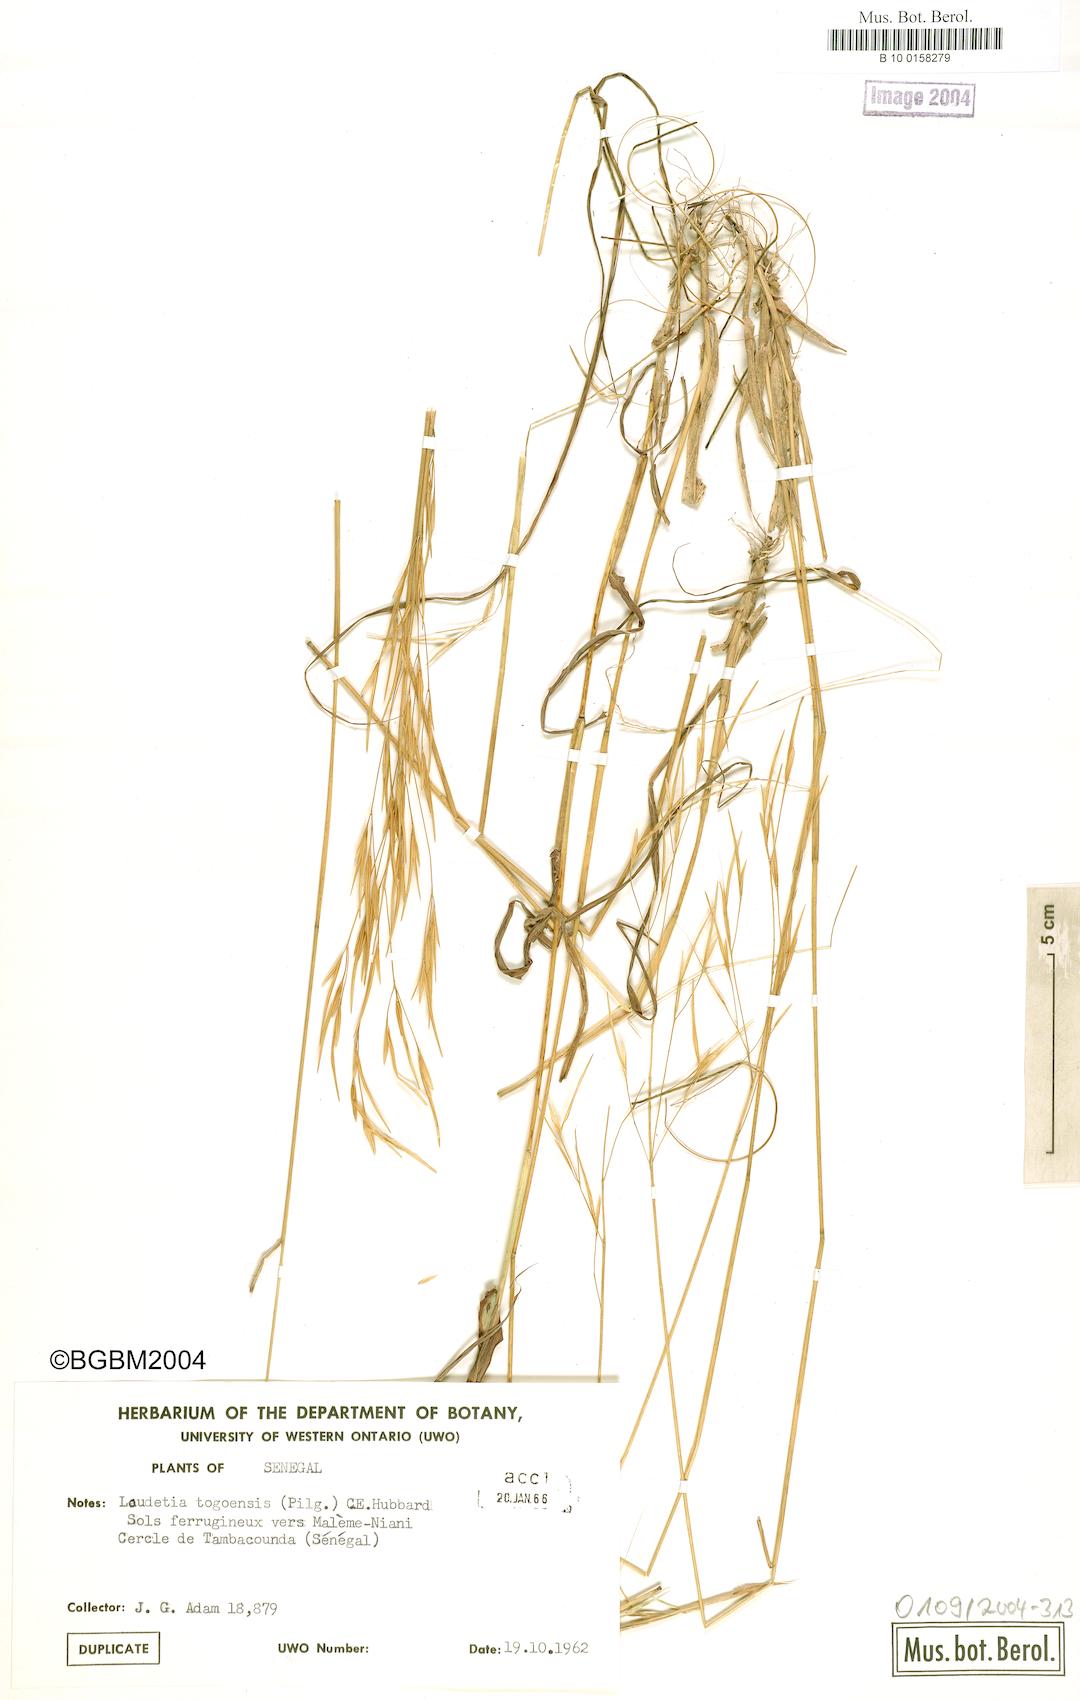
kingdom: Plantae
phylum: Tracheophyta
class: Liliopsida
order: Poales
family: Poaceae
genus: Loudetia
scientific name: Loudetia togoensis
